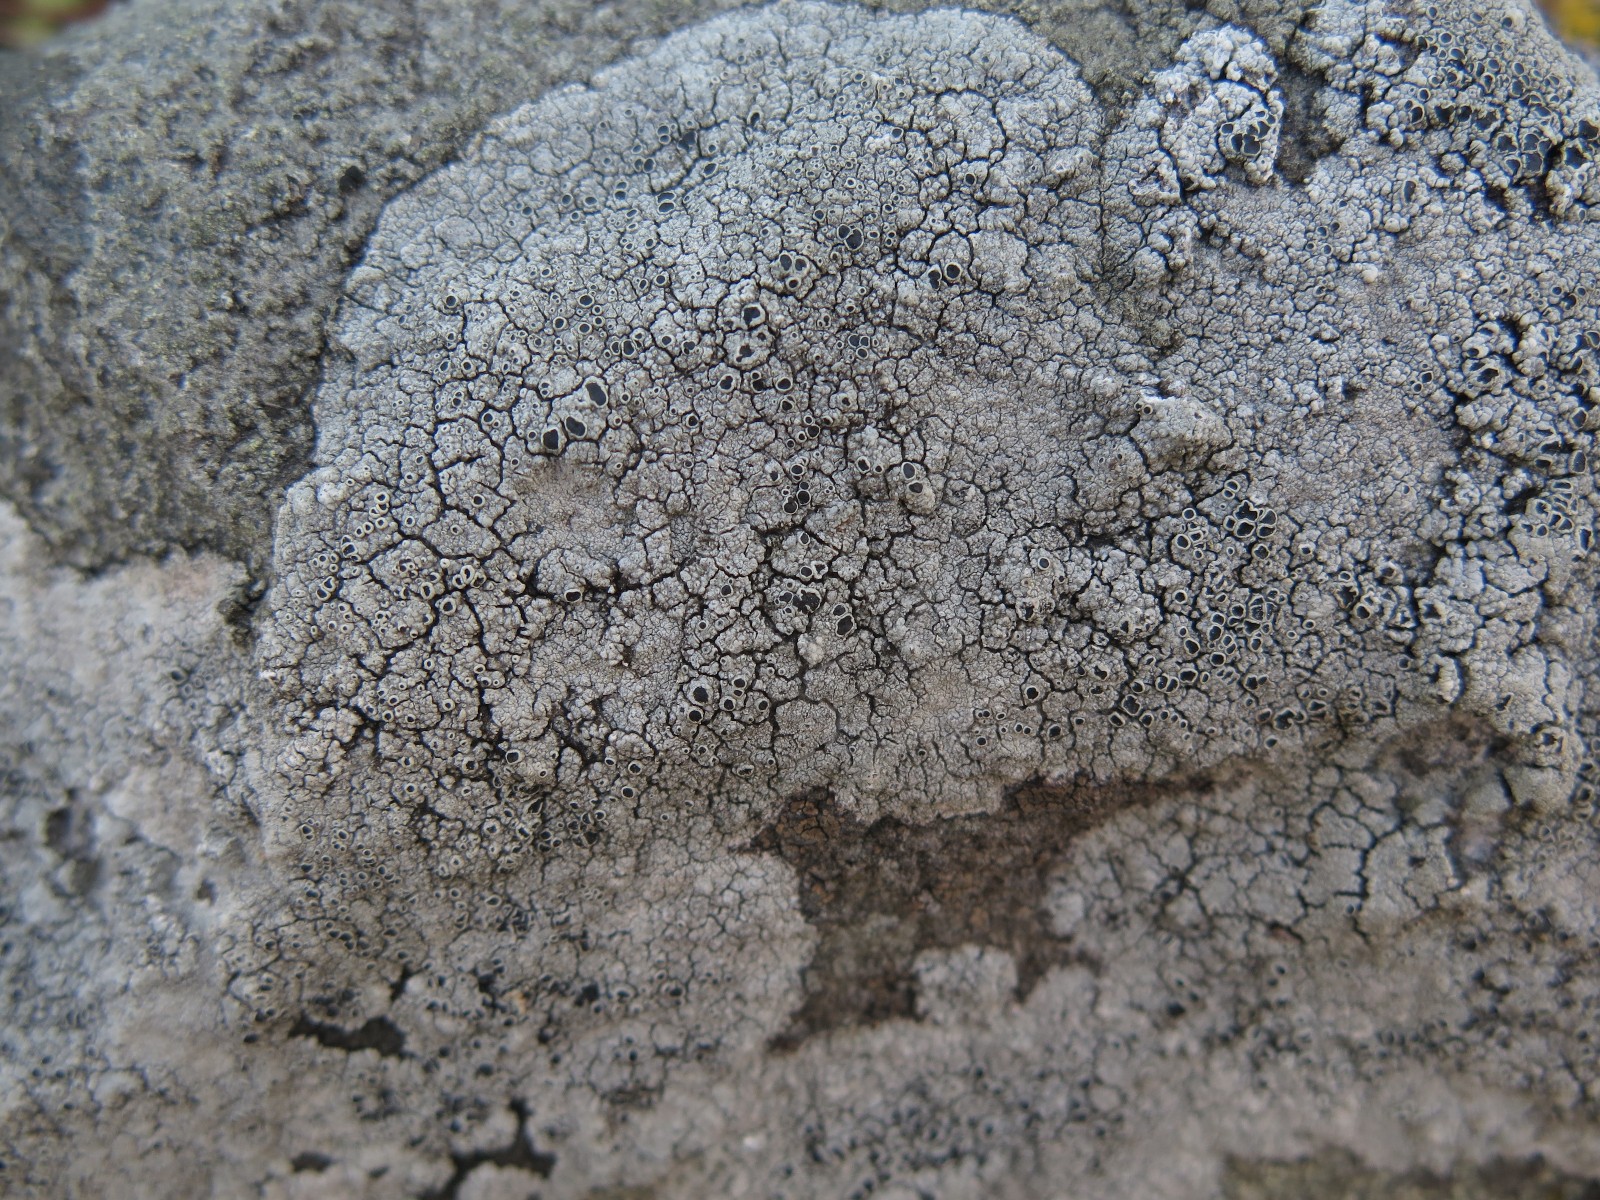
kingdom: Fungi
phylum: Ascomycota
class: Lecanoromycetes
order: Lecanorales
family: Tephromelataceae
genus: Tephromela
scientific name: Tephromela atra
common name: sortfrugtet kantskivelav
